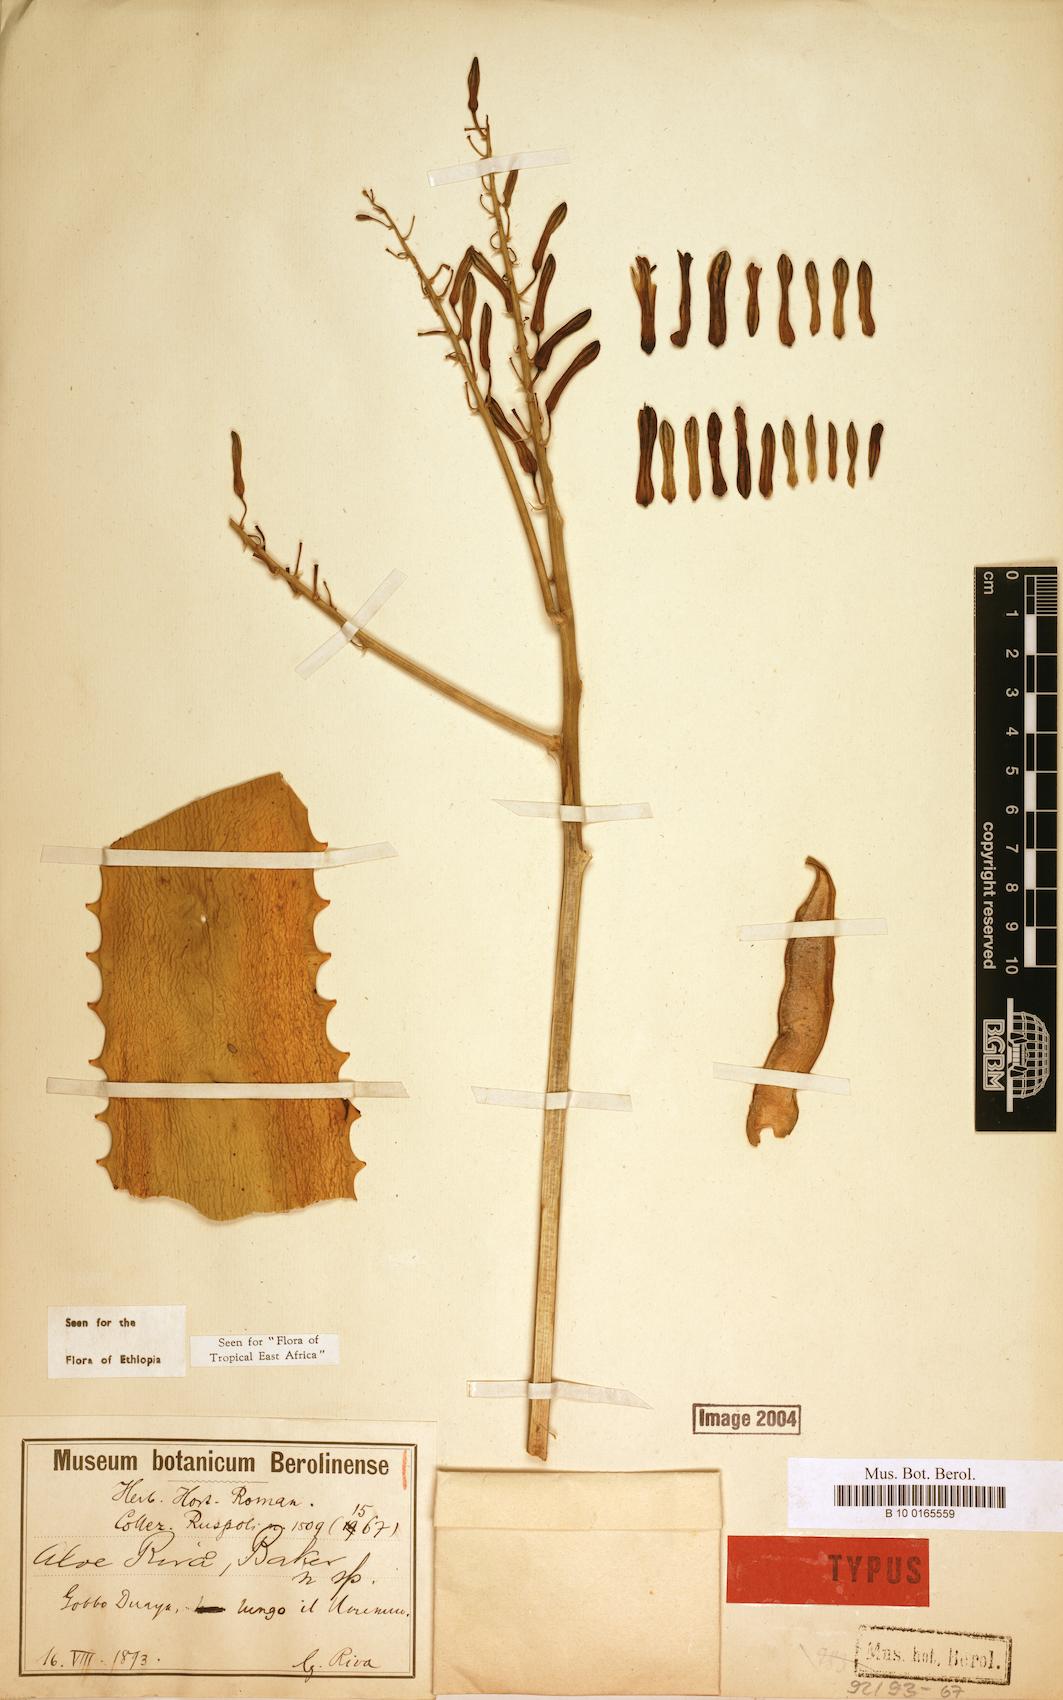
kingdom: Plantae
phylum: Tracheophyta
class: Liliopsida
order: Asparagales
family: Asphodelaceae
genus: Aloe
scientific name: Aloe rivae
